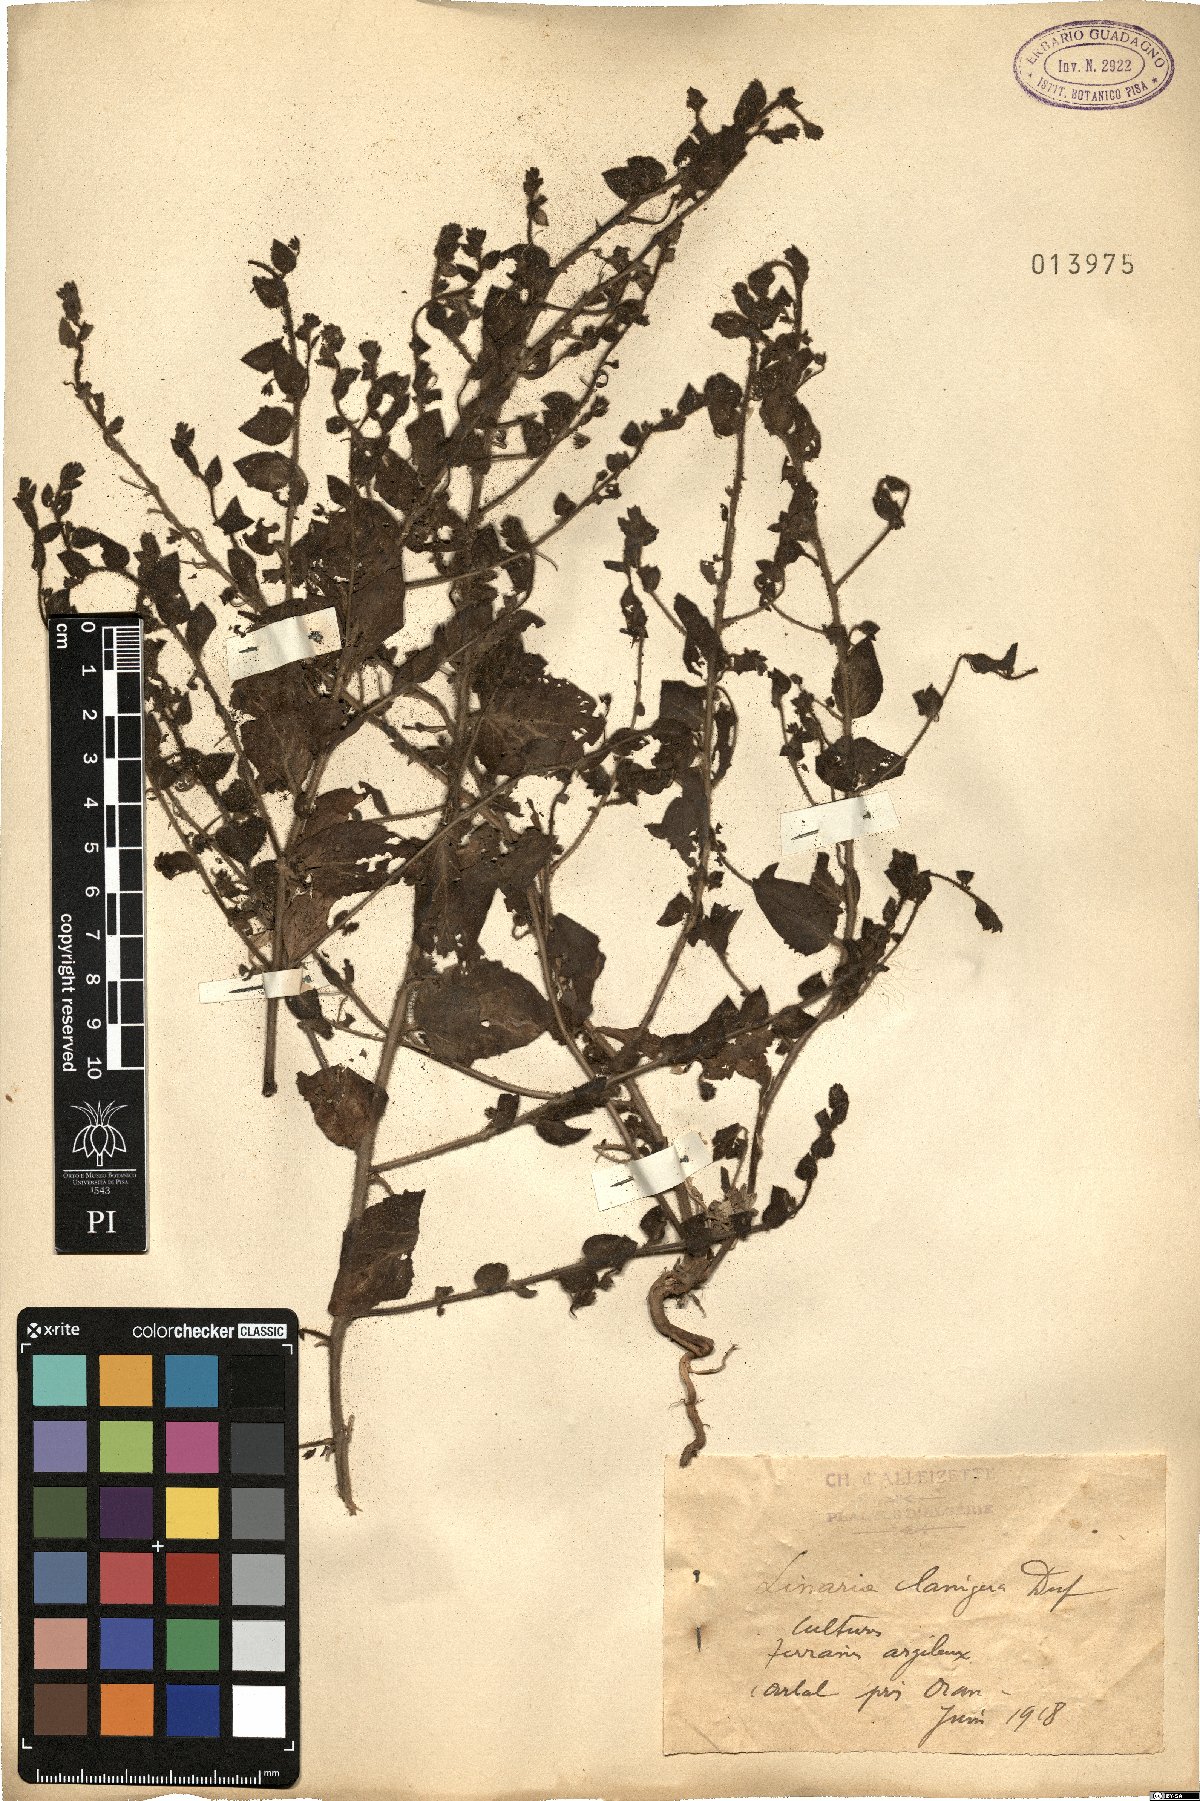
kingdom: Plantae
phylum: Tracheophyta
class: Magnoliopsida
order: Lamiales
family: Plantaginaceae
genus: Kickxia
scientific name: Kickxia lanigera
